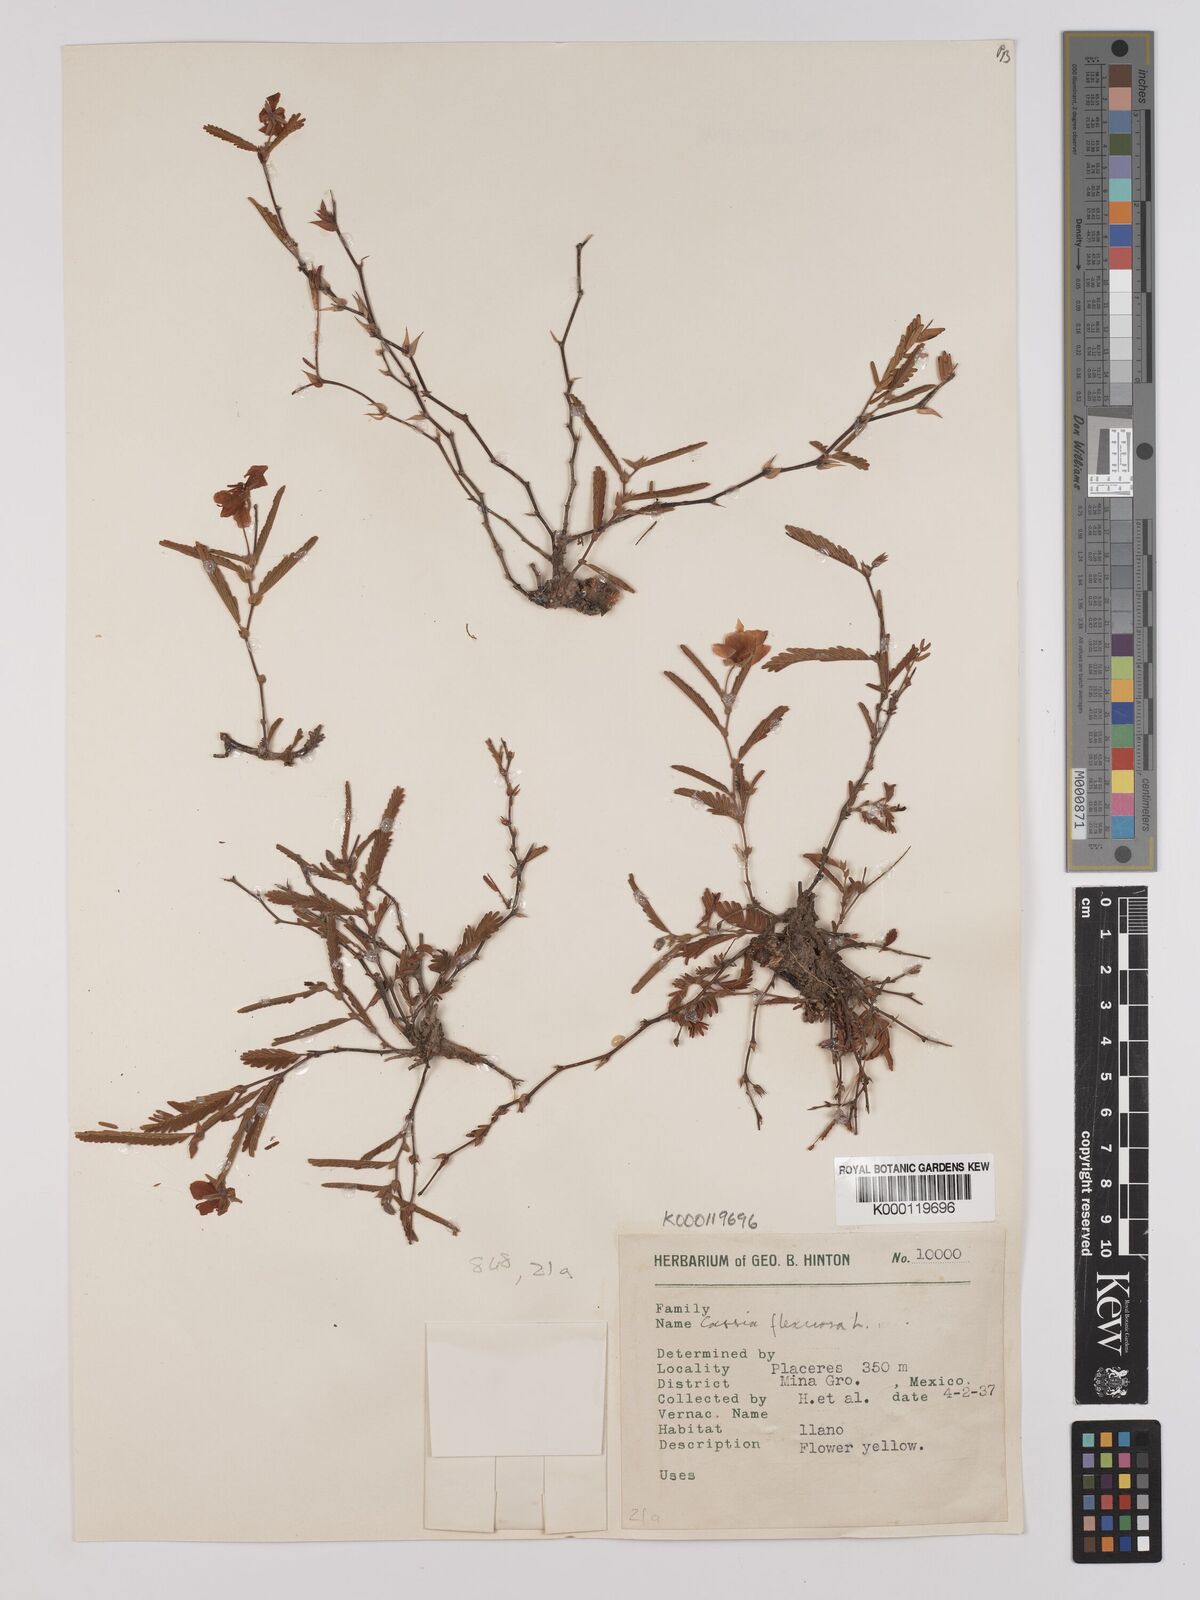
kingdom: Plantae
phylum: Tracheophyta
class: Magnoliopsida
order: Fabales
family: Fabaceae
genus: Chamaecrista
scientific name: Chamaecrista flexuosa
